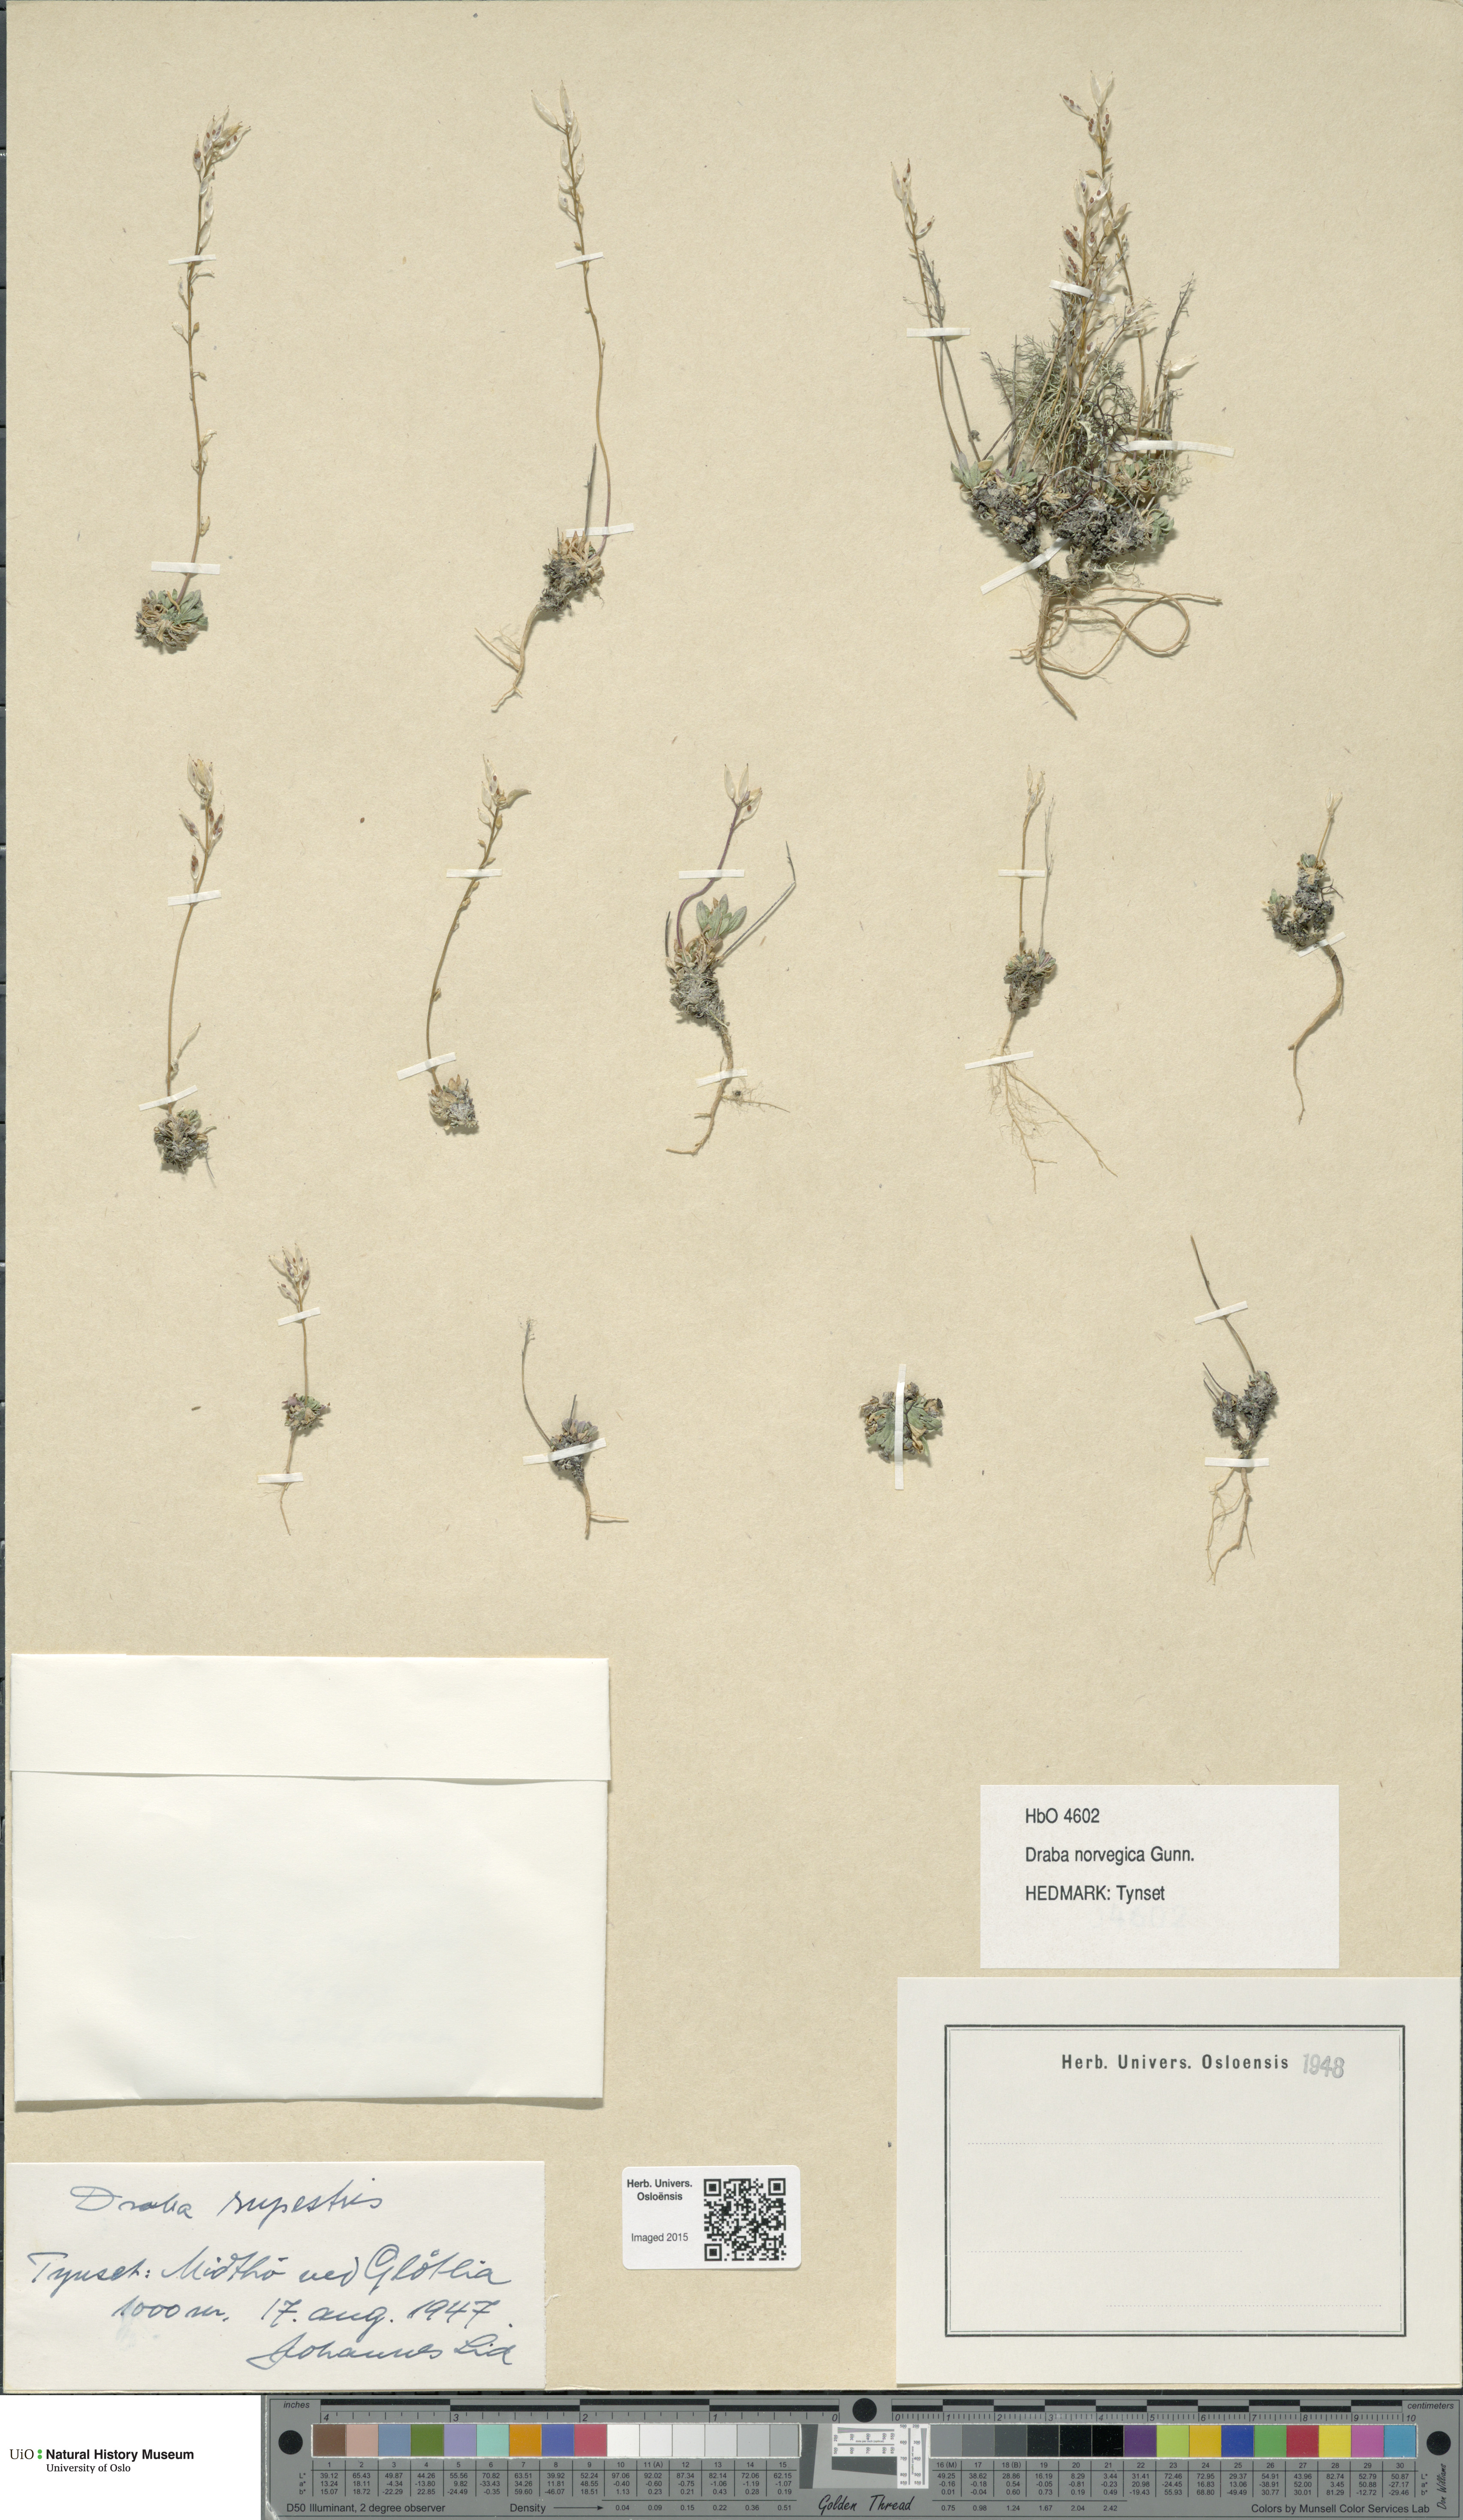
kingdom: Plantae
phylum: Tracheophyta
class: Magnoliopsida
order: Brassicales
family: Brassicaceae
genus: Draba
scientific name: Draba norvegica
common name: Rock whitlowgrass
